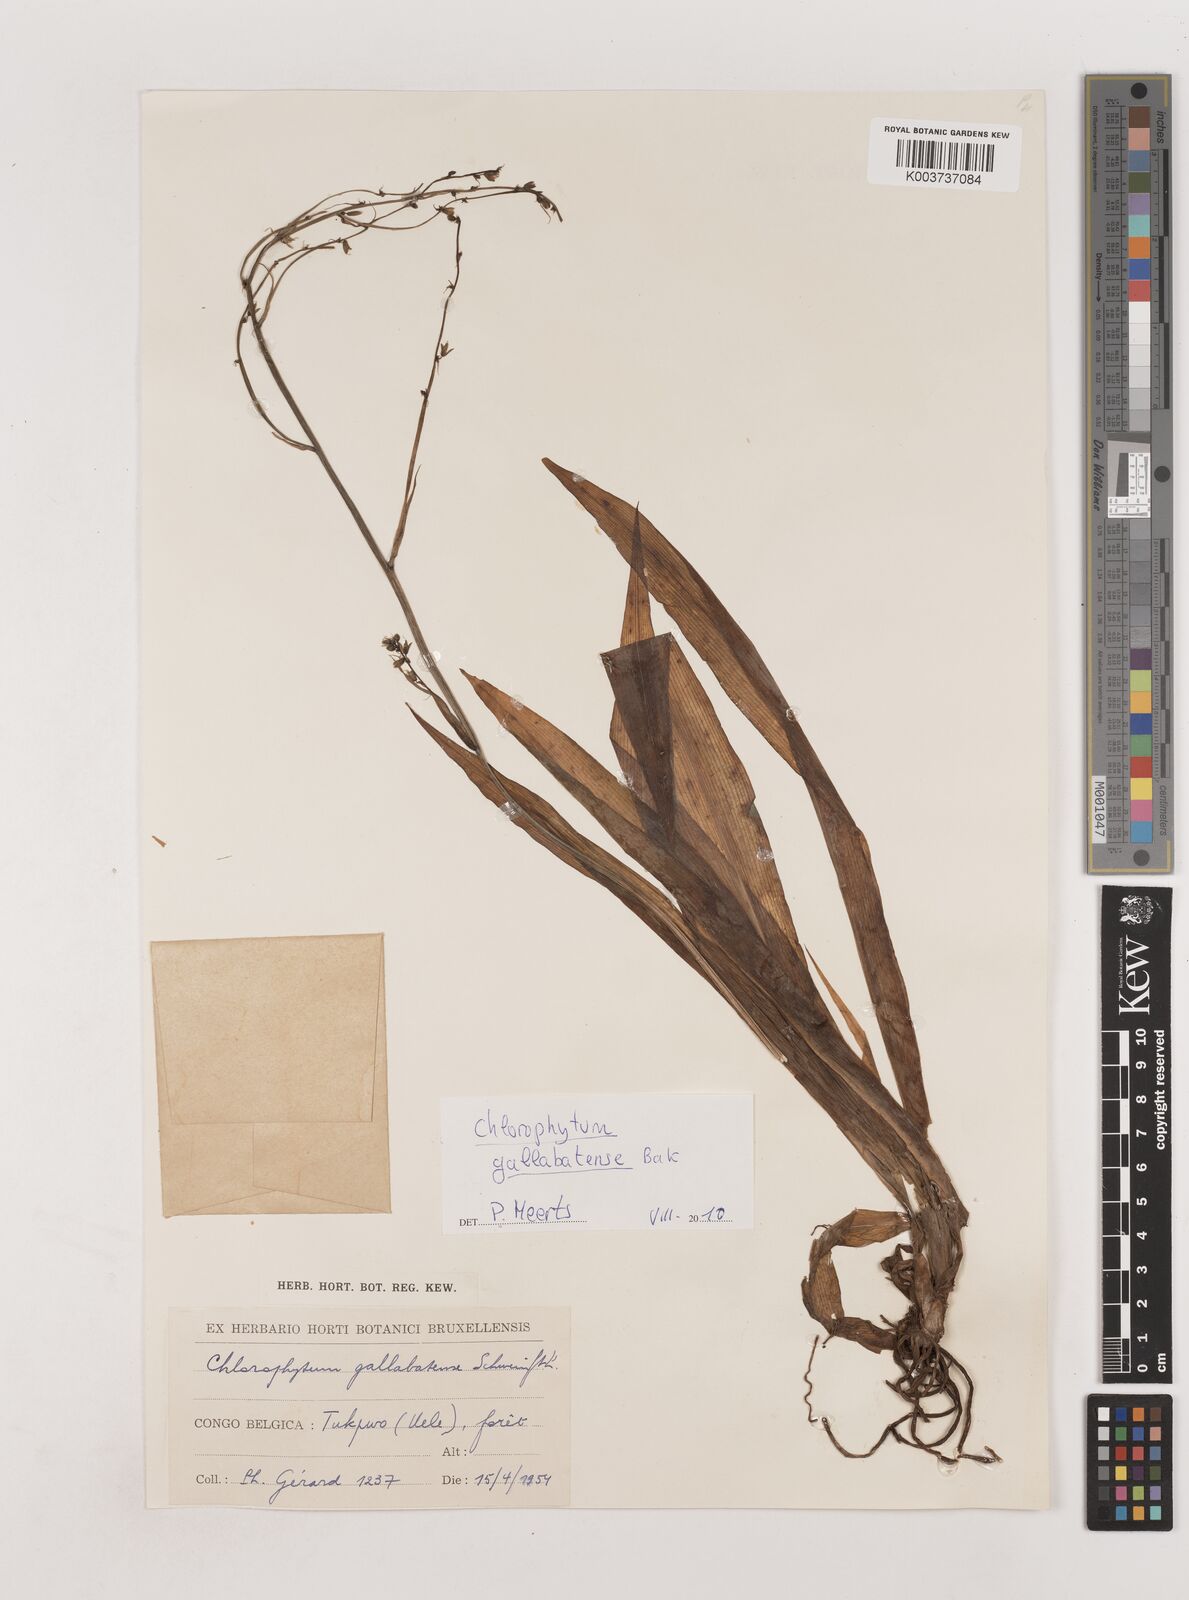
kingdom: Plantae
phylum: Tracheophyta
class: Liliopsida
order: Asparagales
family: Asparagaceae
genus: Chlorophytum
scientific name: Chlorophytum gallabatense
